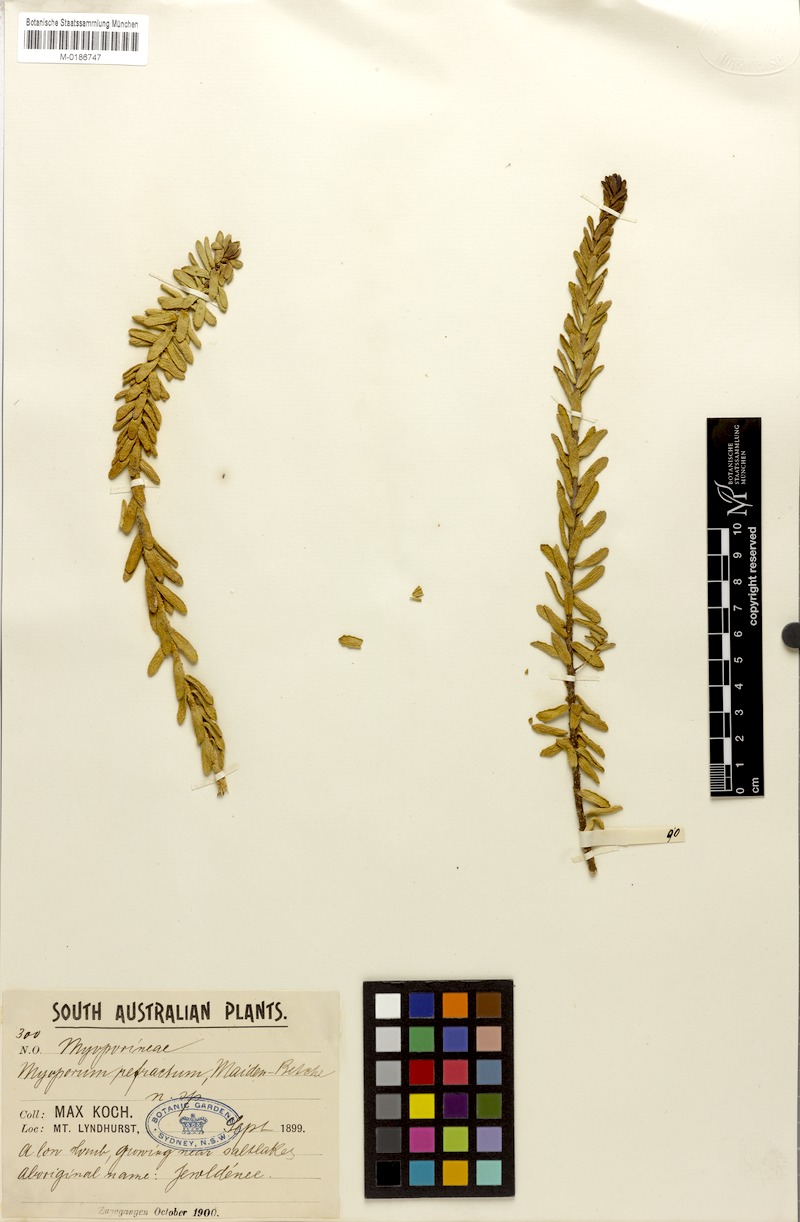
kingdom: Plantae
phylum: Tracheophyta
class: Magnoliopsida
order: Lamiales
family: Scrophulariaceae
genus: Myoporum
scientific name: Myoporum brevipes
